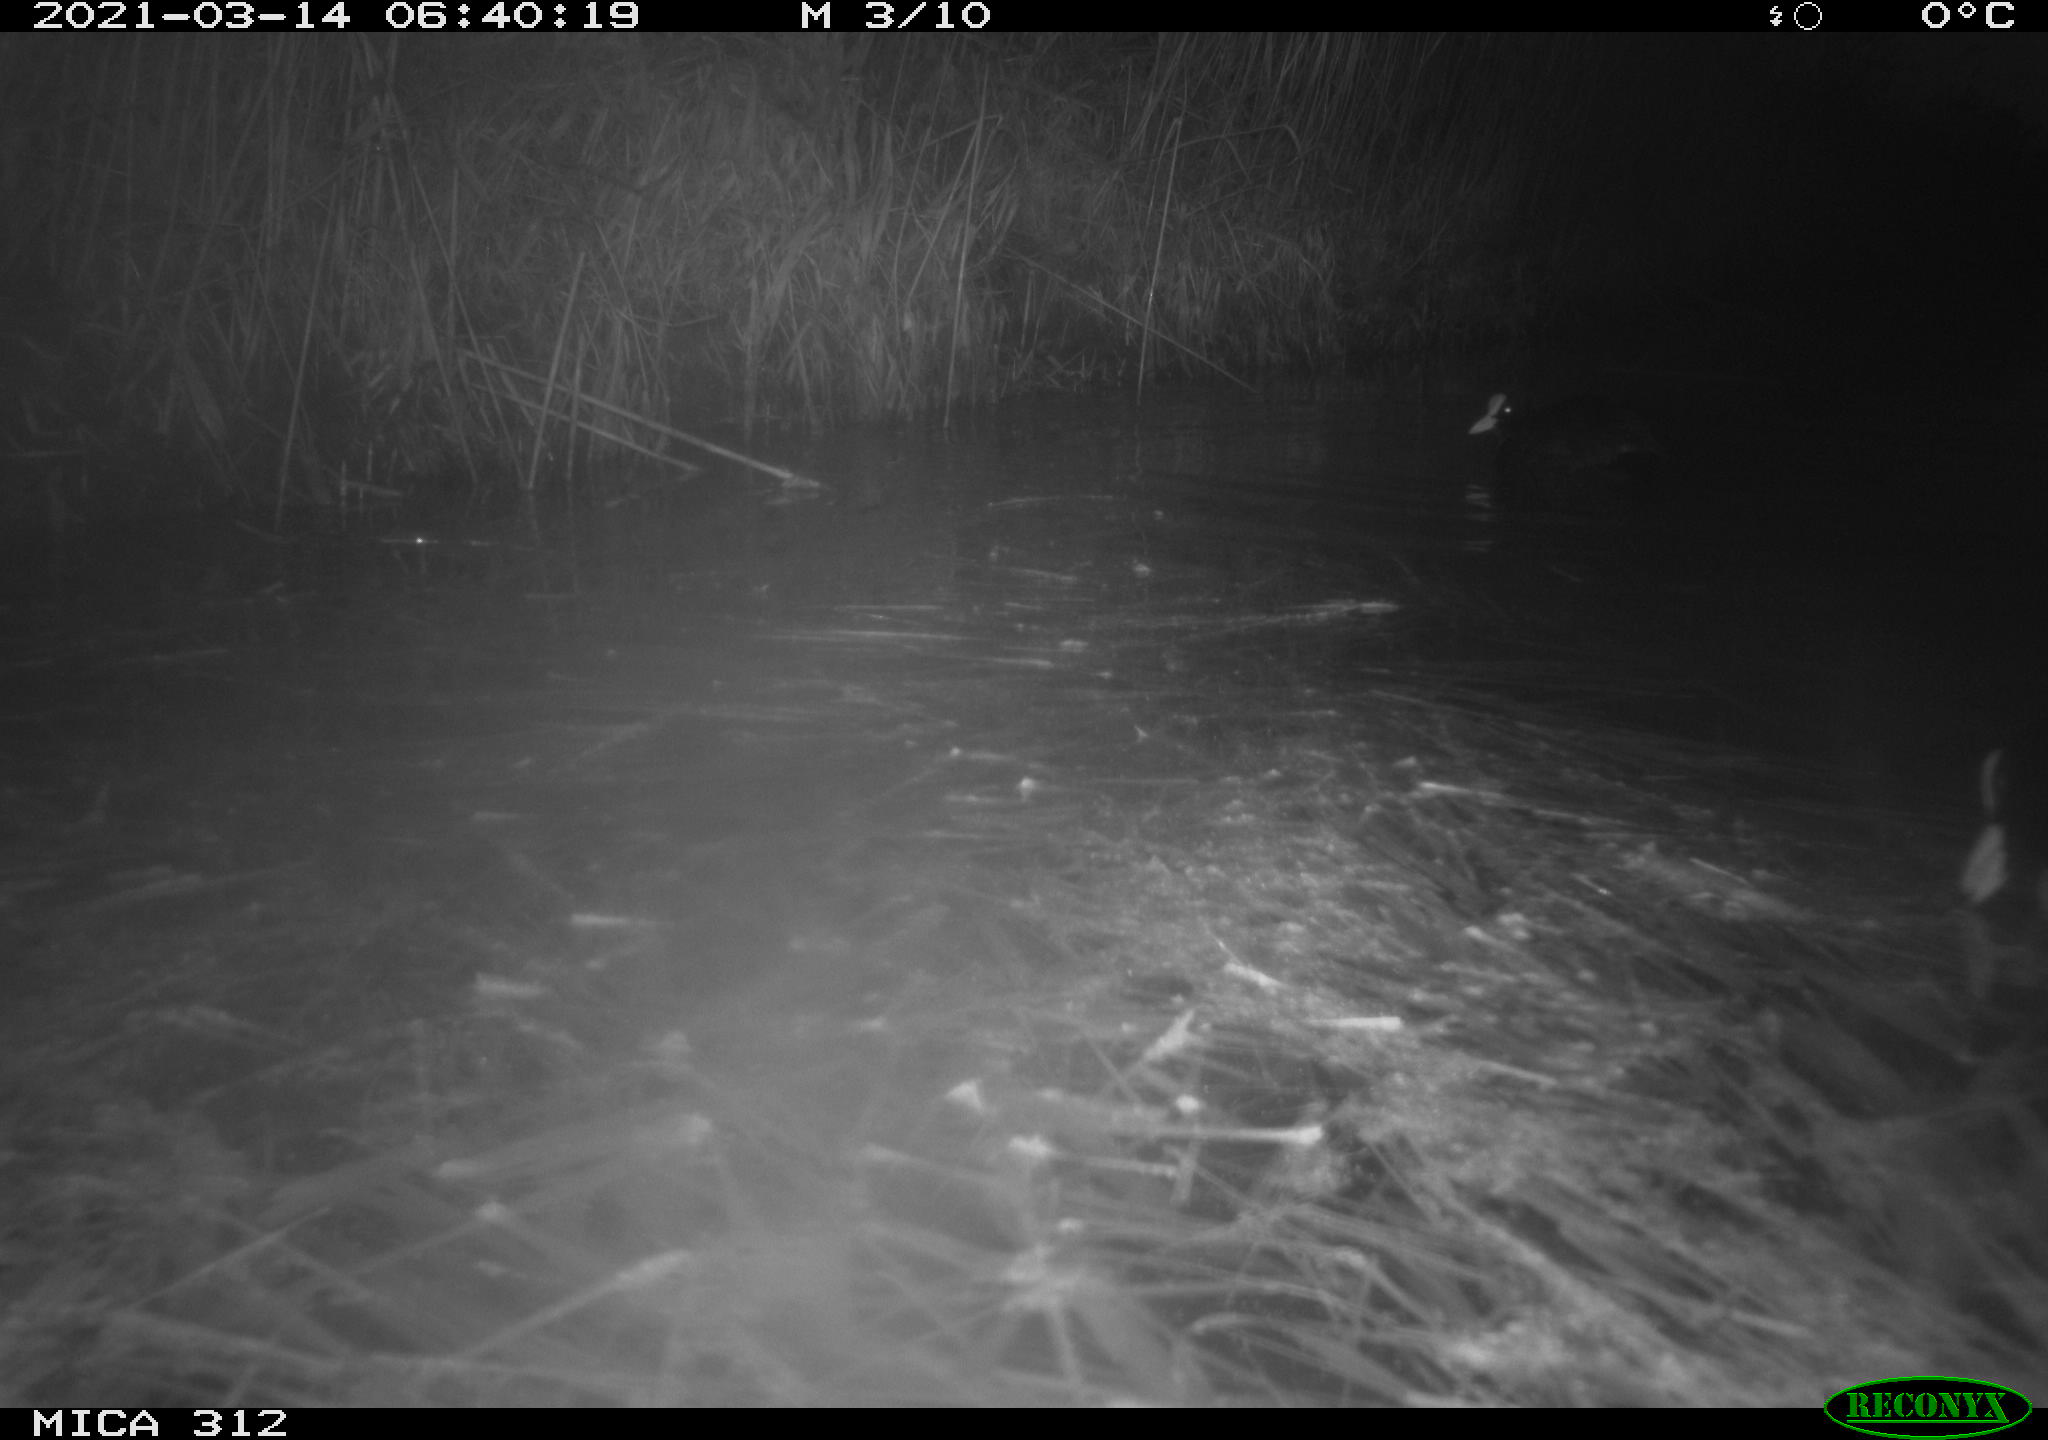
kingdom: Animalia
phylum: Chordata
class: Aves
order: Gruiformes
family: Rallidae
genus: Fulica
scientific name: Fulica atra
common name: Eurasian coot
